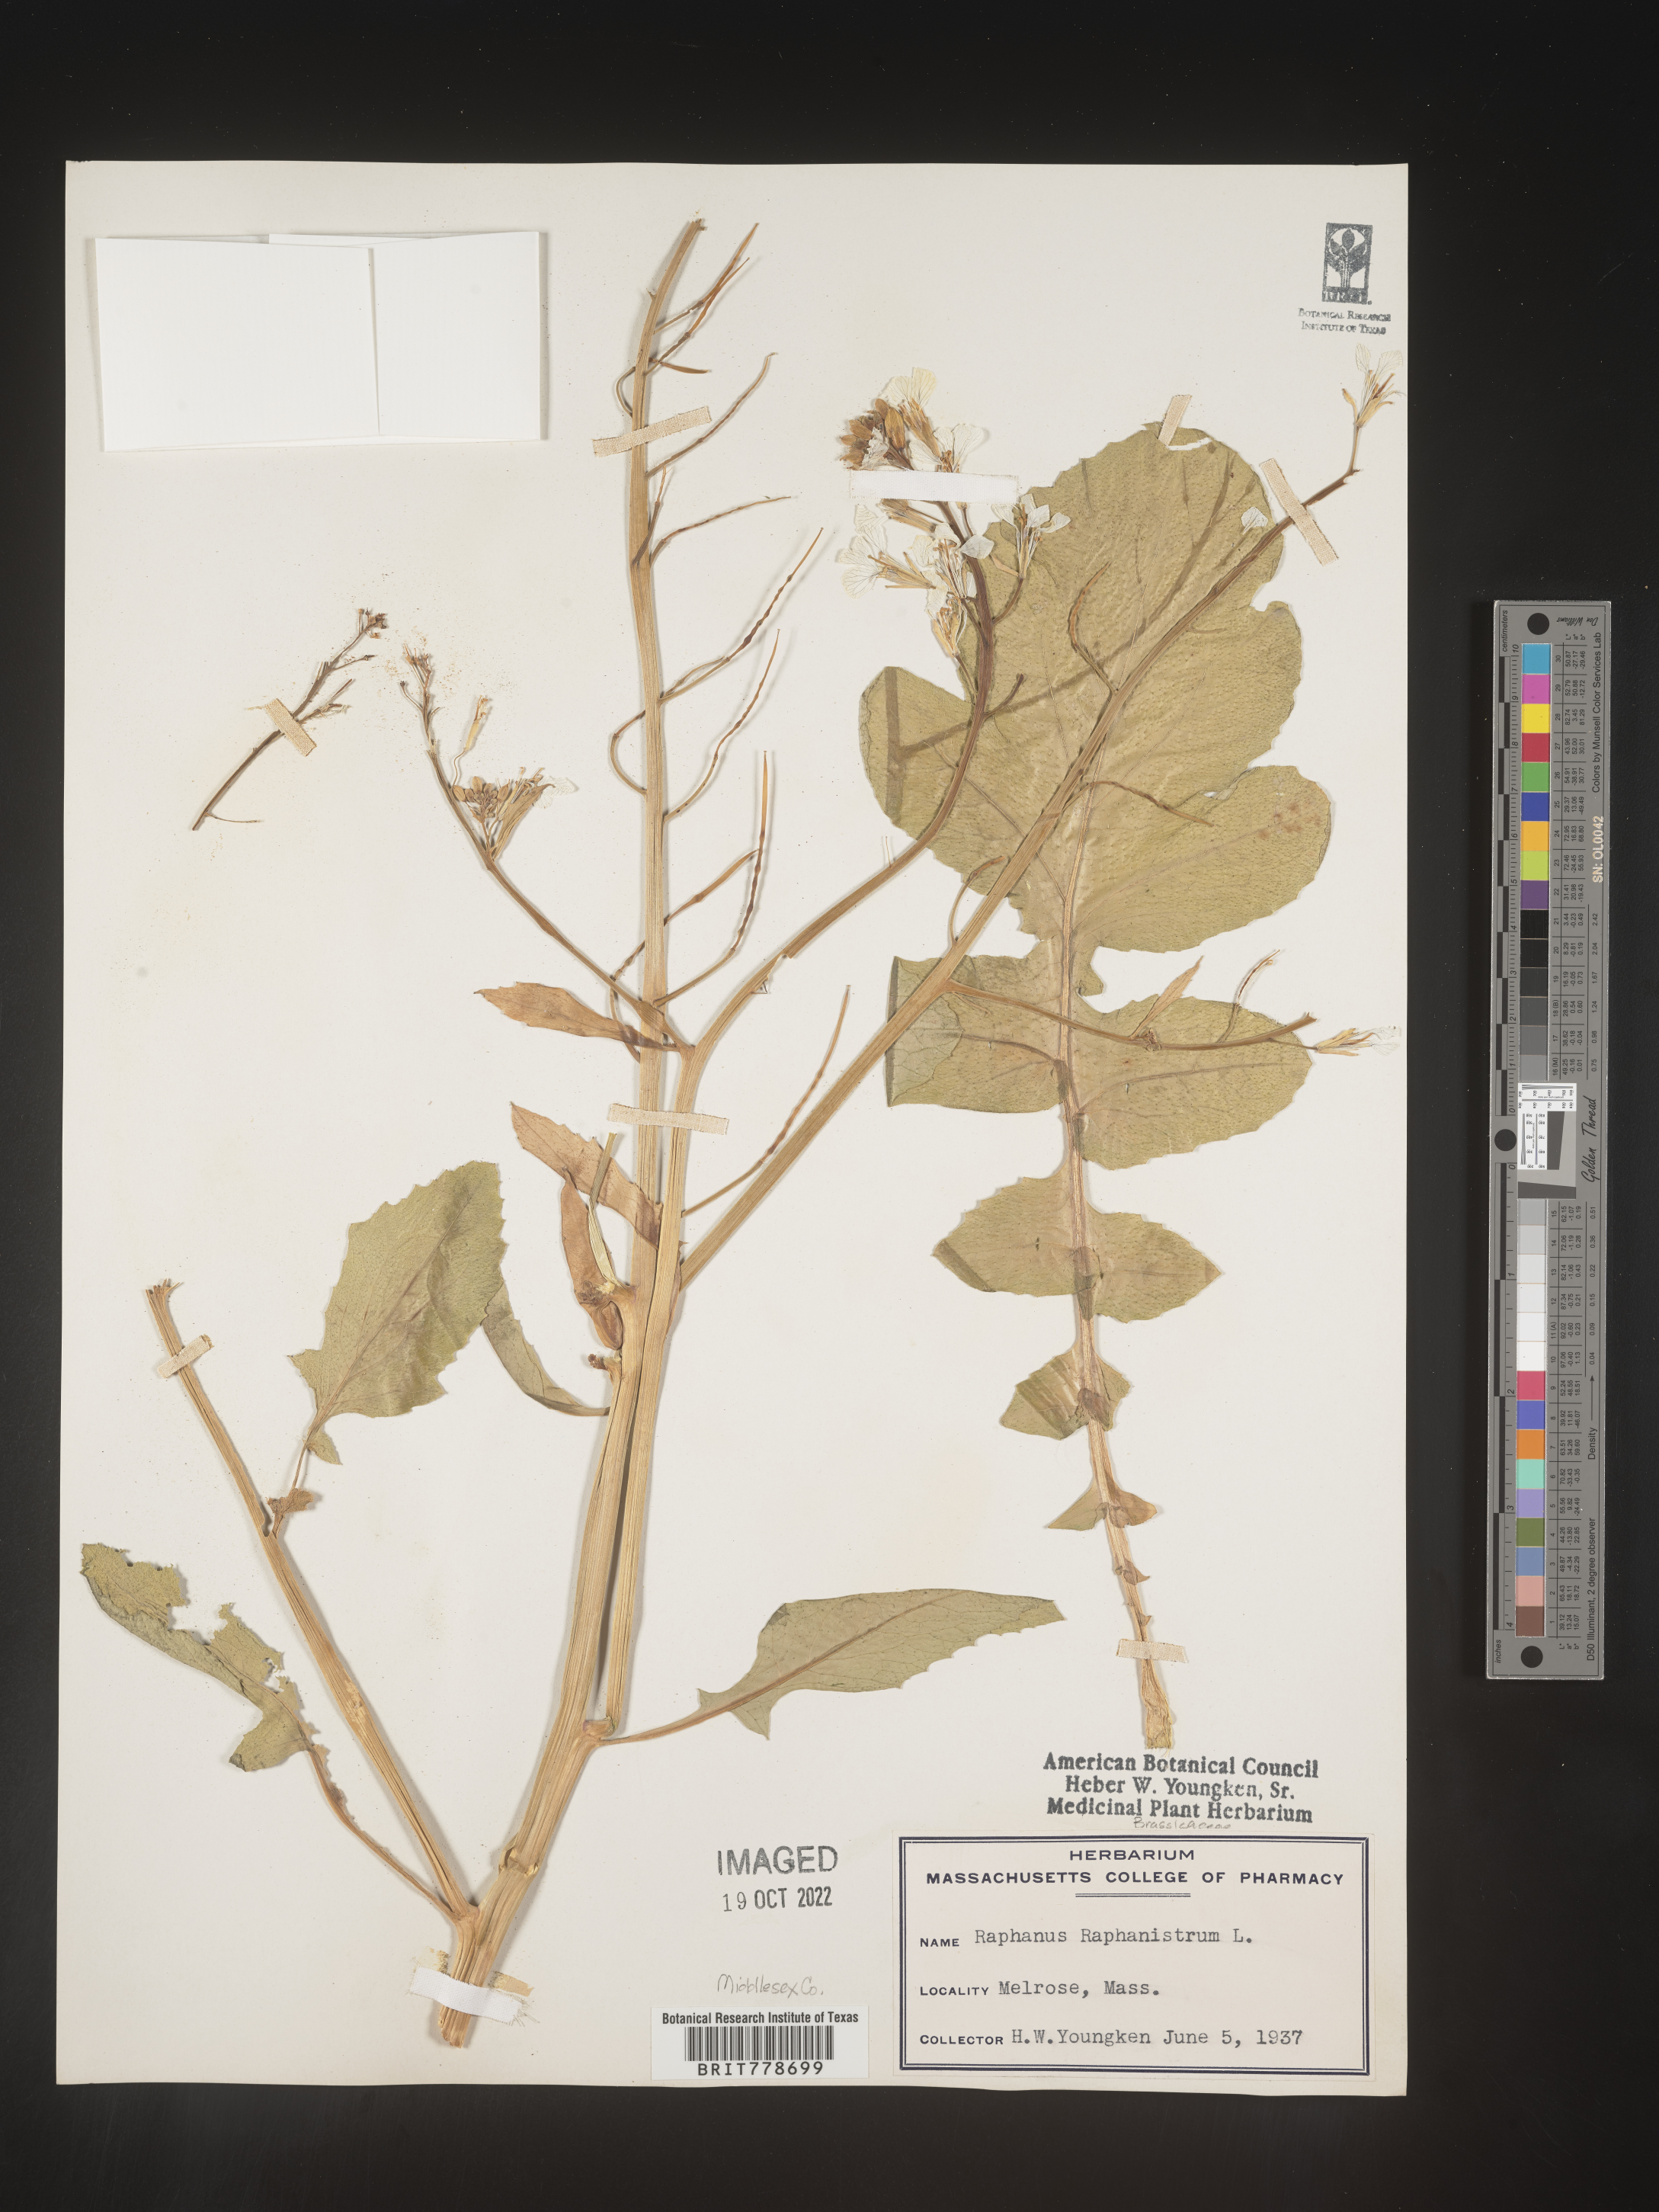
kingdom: Plantae
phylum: Tracheophyta
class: Magnoliopsida
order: Brassicales
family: Brassicaceae
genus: Raphanus
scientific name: Raphanus raphanistrum
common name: Wild radish
